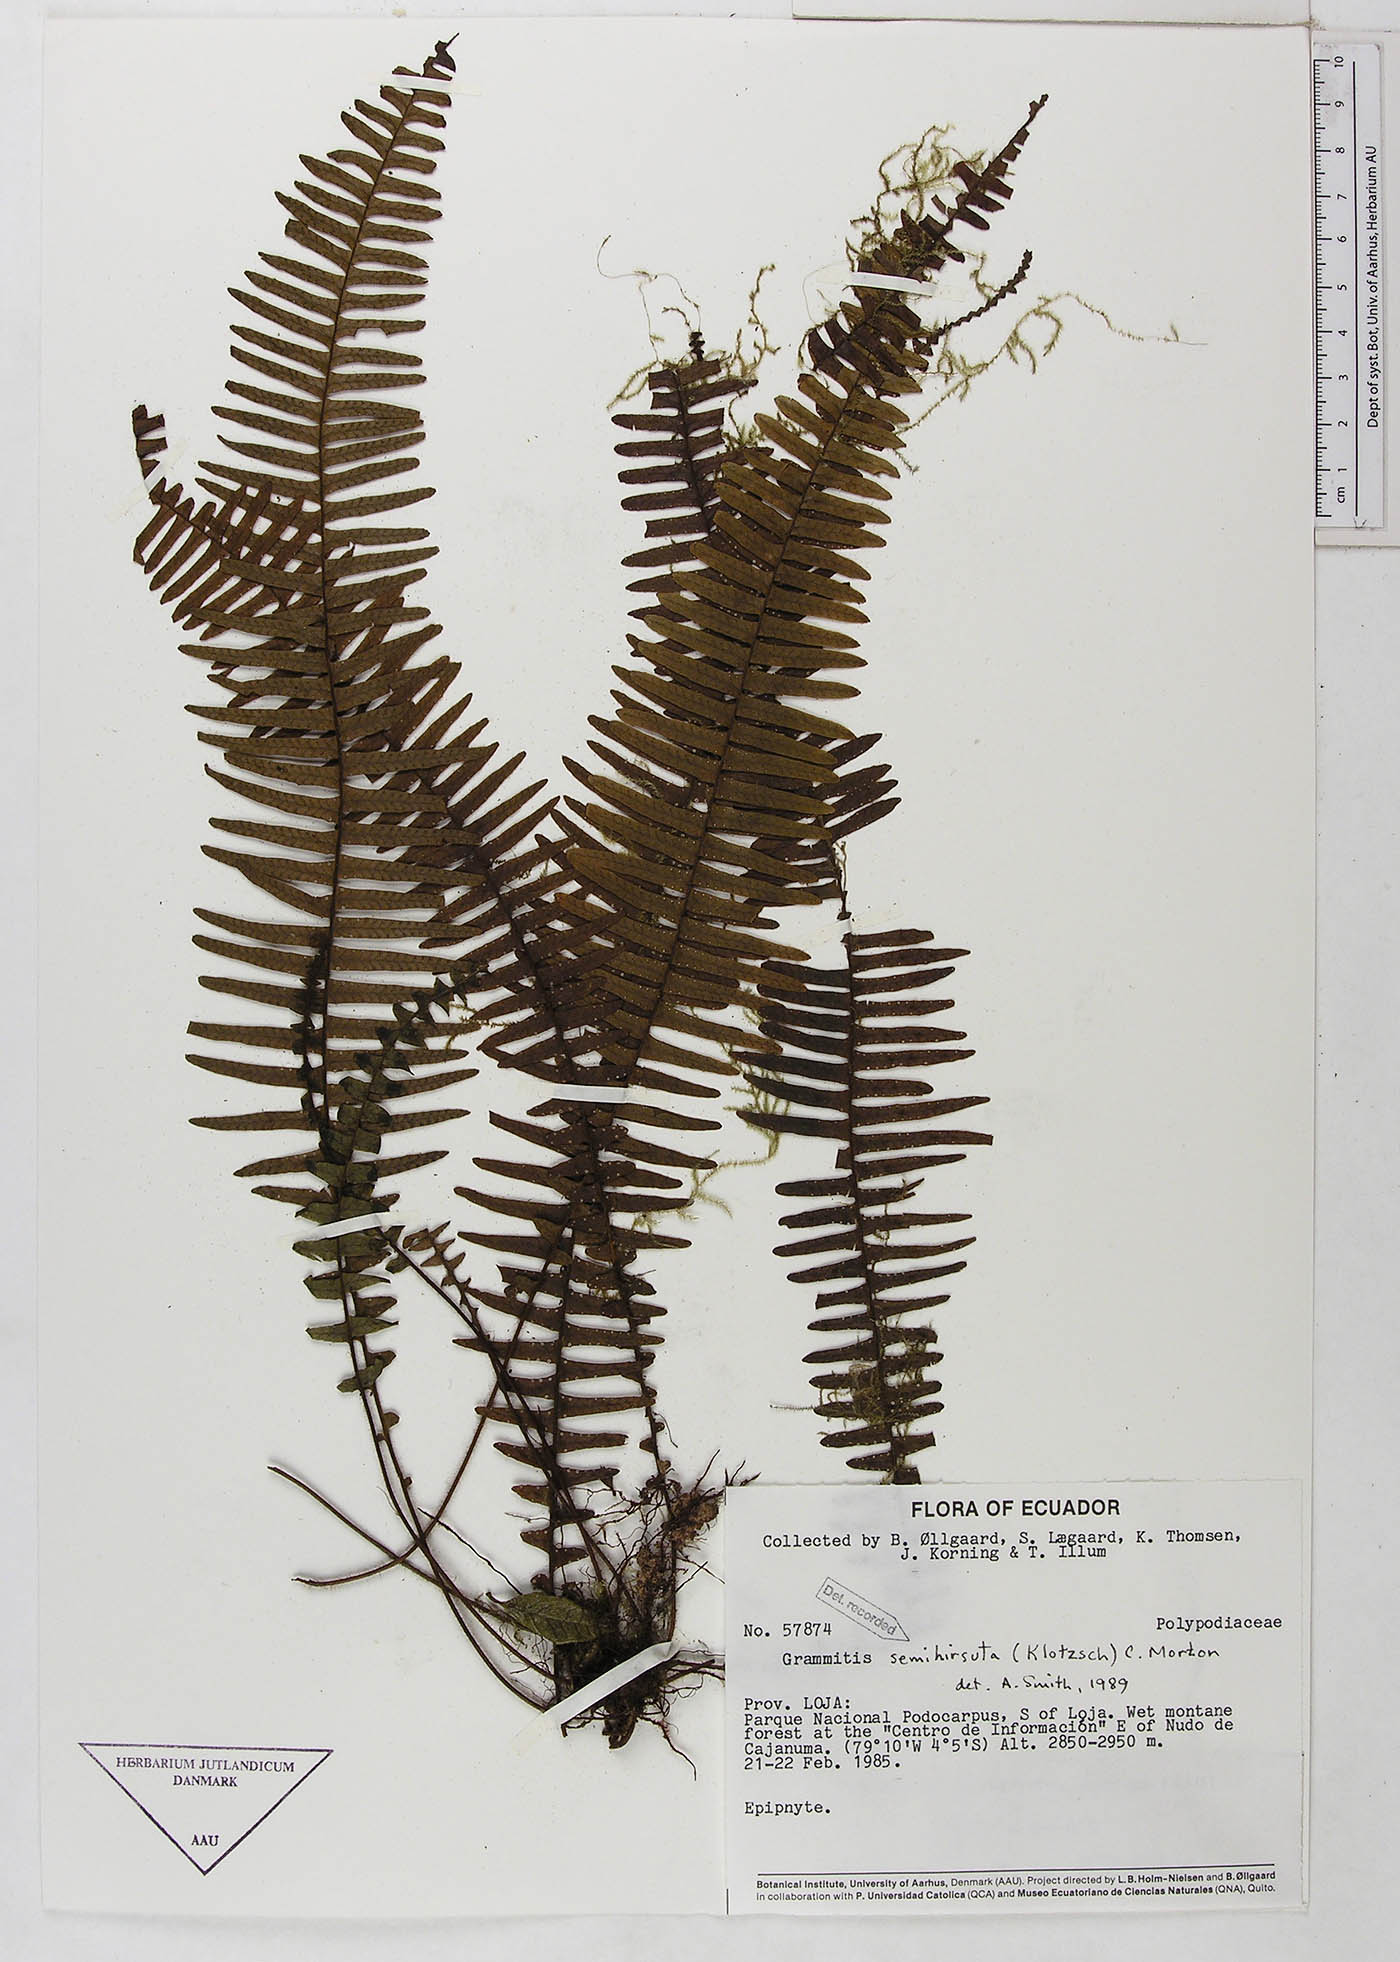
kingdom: Plantae
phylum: Tracheophyta
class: Polypodiopsida
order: Polypodiales
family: Polypodiaceae
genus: Mycopteris
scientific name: Mycopteris semihirsuta
